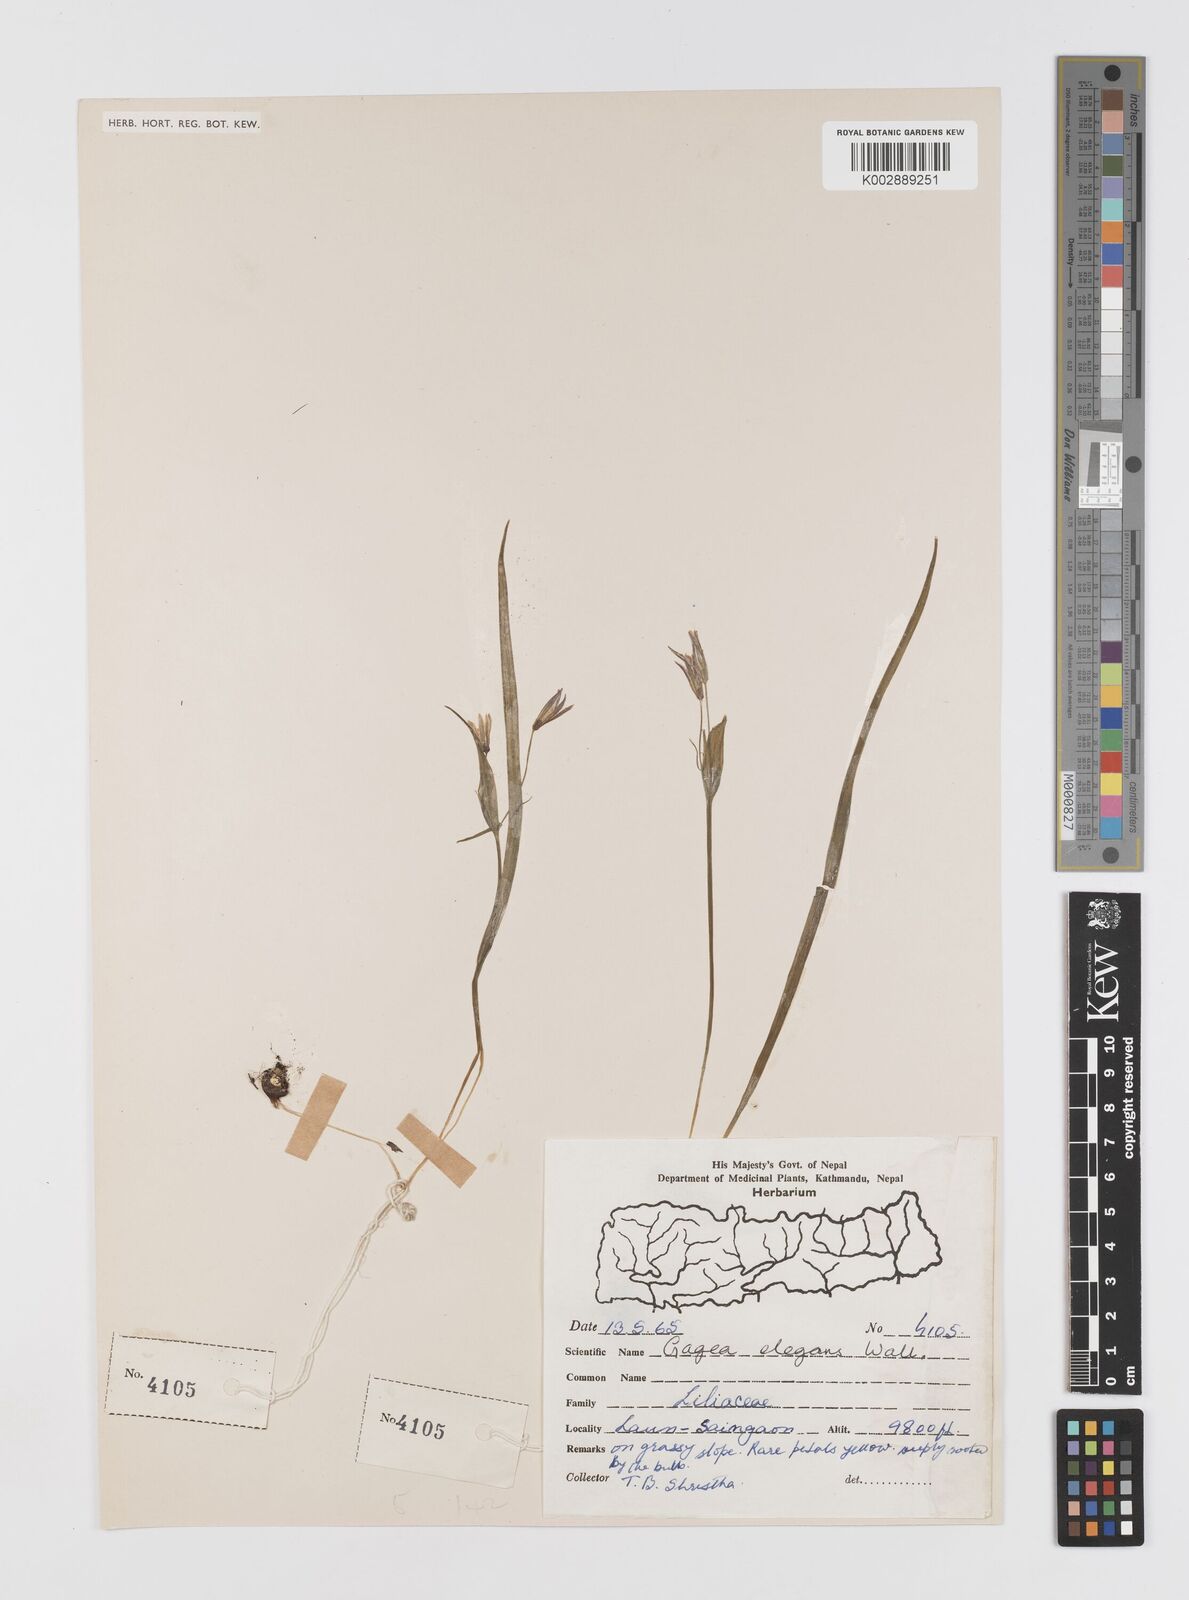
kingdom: Plantae
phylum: Tracheophyta
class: Liliopsida
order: Liliales
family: Liliaceae
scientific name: Liliaceae
